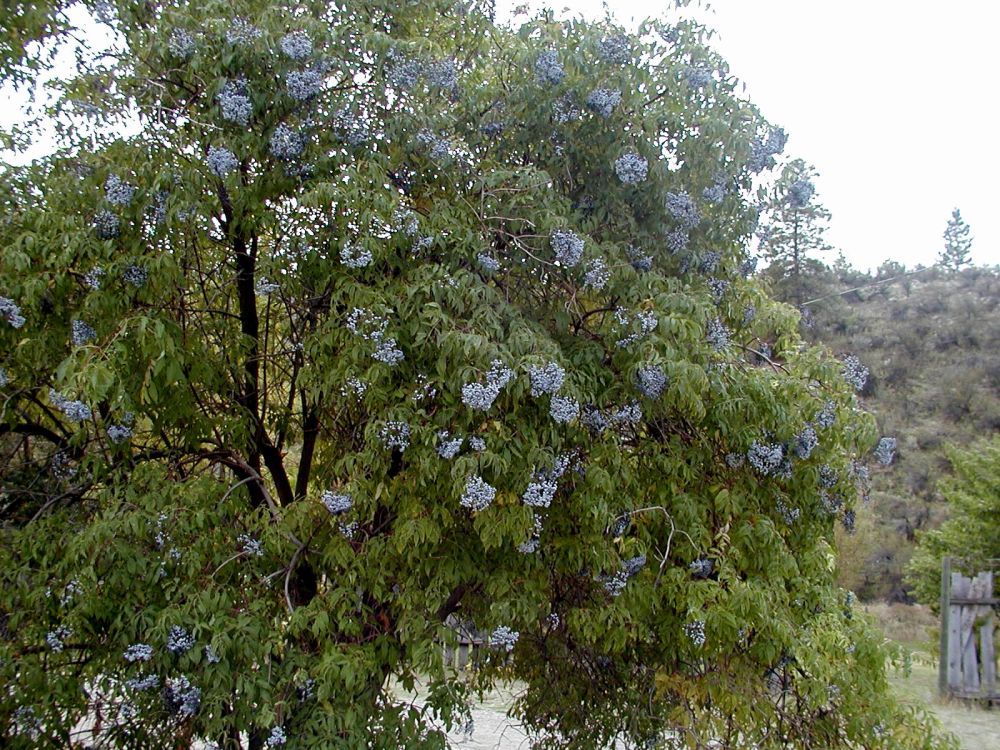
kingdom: Plantae
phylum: Tracheophyta
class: Magnoliopsida
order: Dipsacales
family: Viburnaceae
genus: Sambucus
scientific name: Sambucus caerulea
